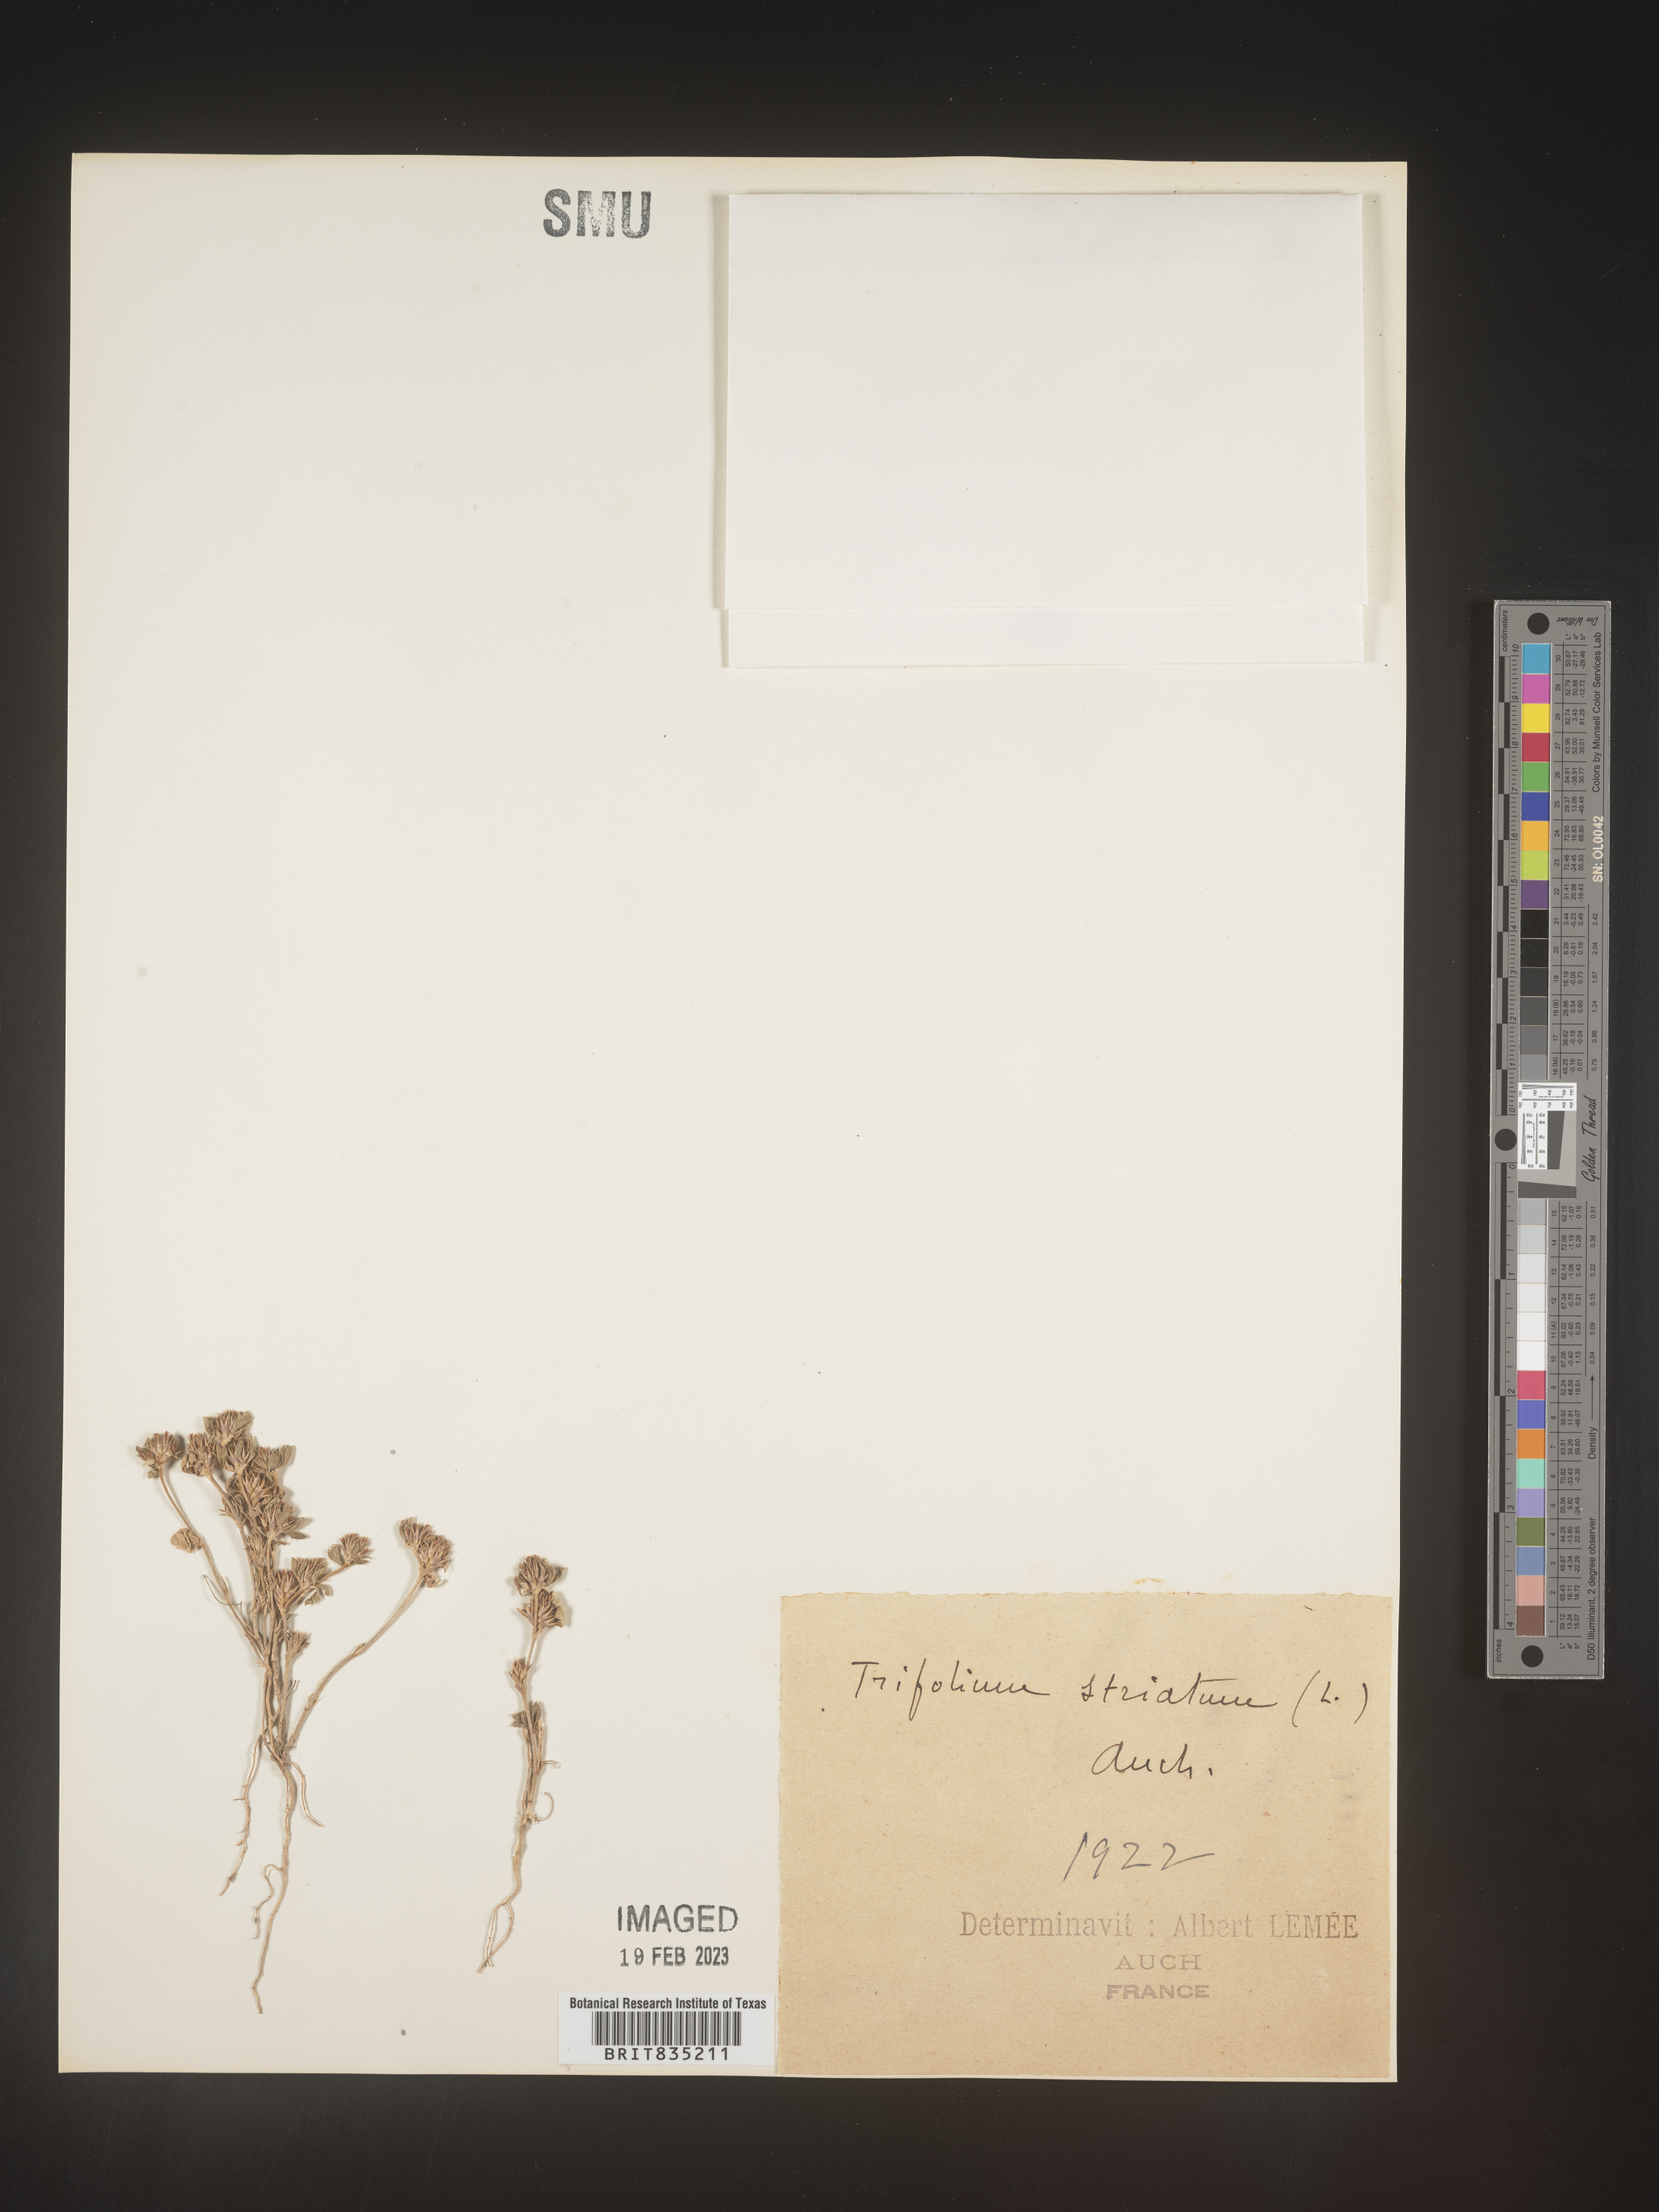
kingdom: Plantae
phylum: Tracheophyta
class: Magnoliopsida
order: Fabales
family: Fabaceae
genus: Trifolium
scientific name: Trifolium
